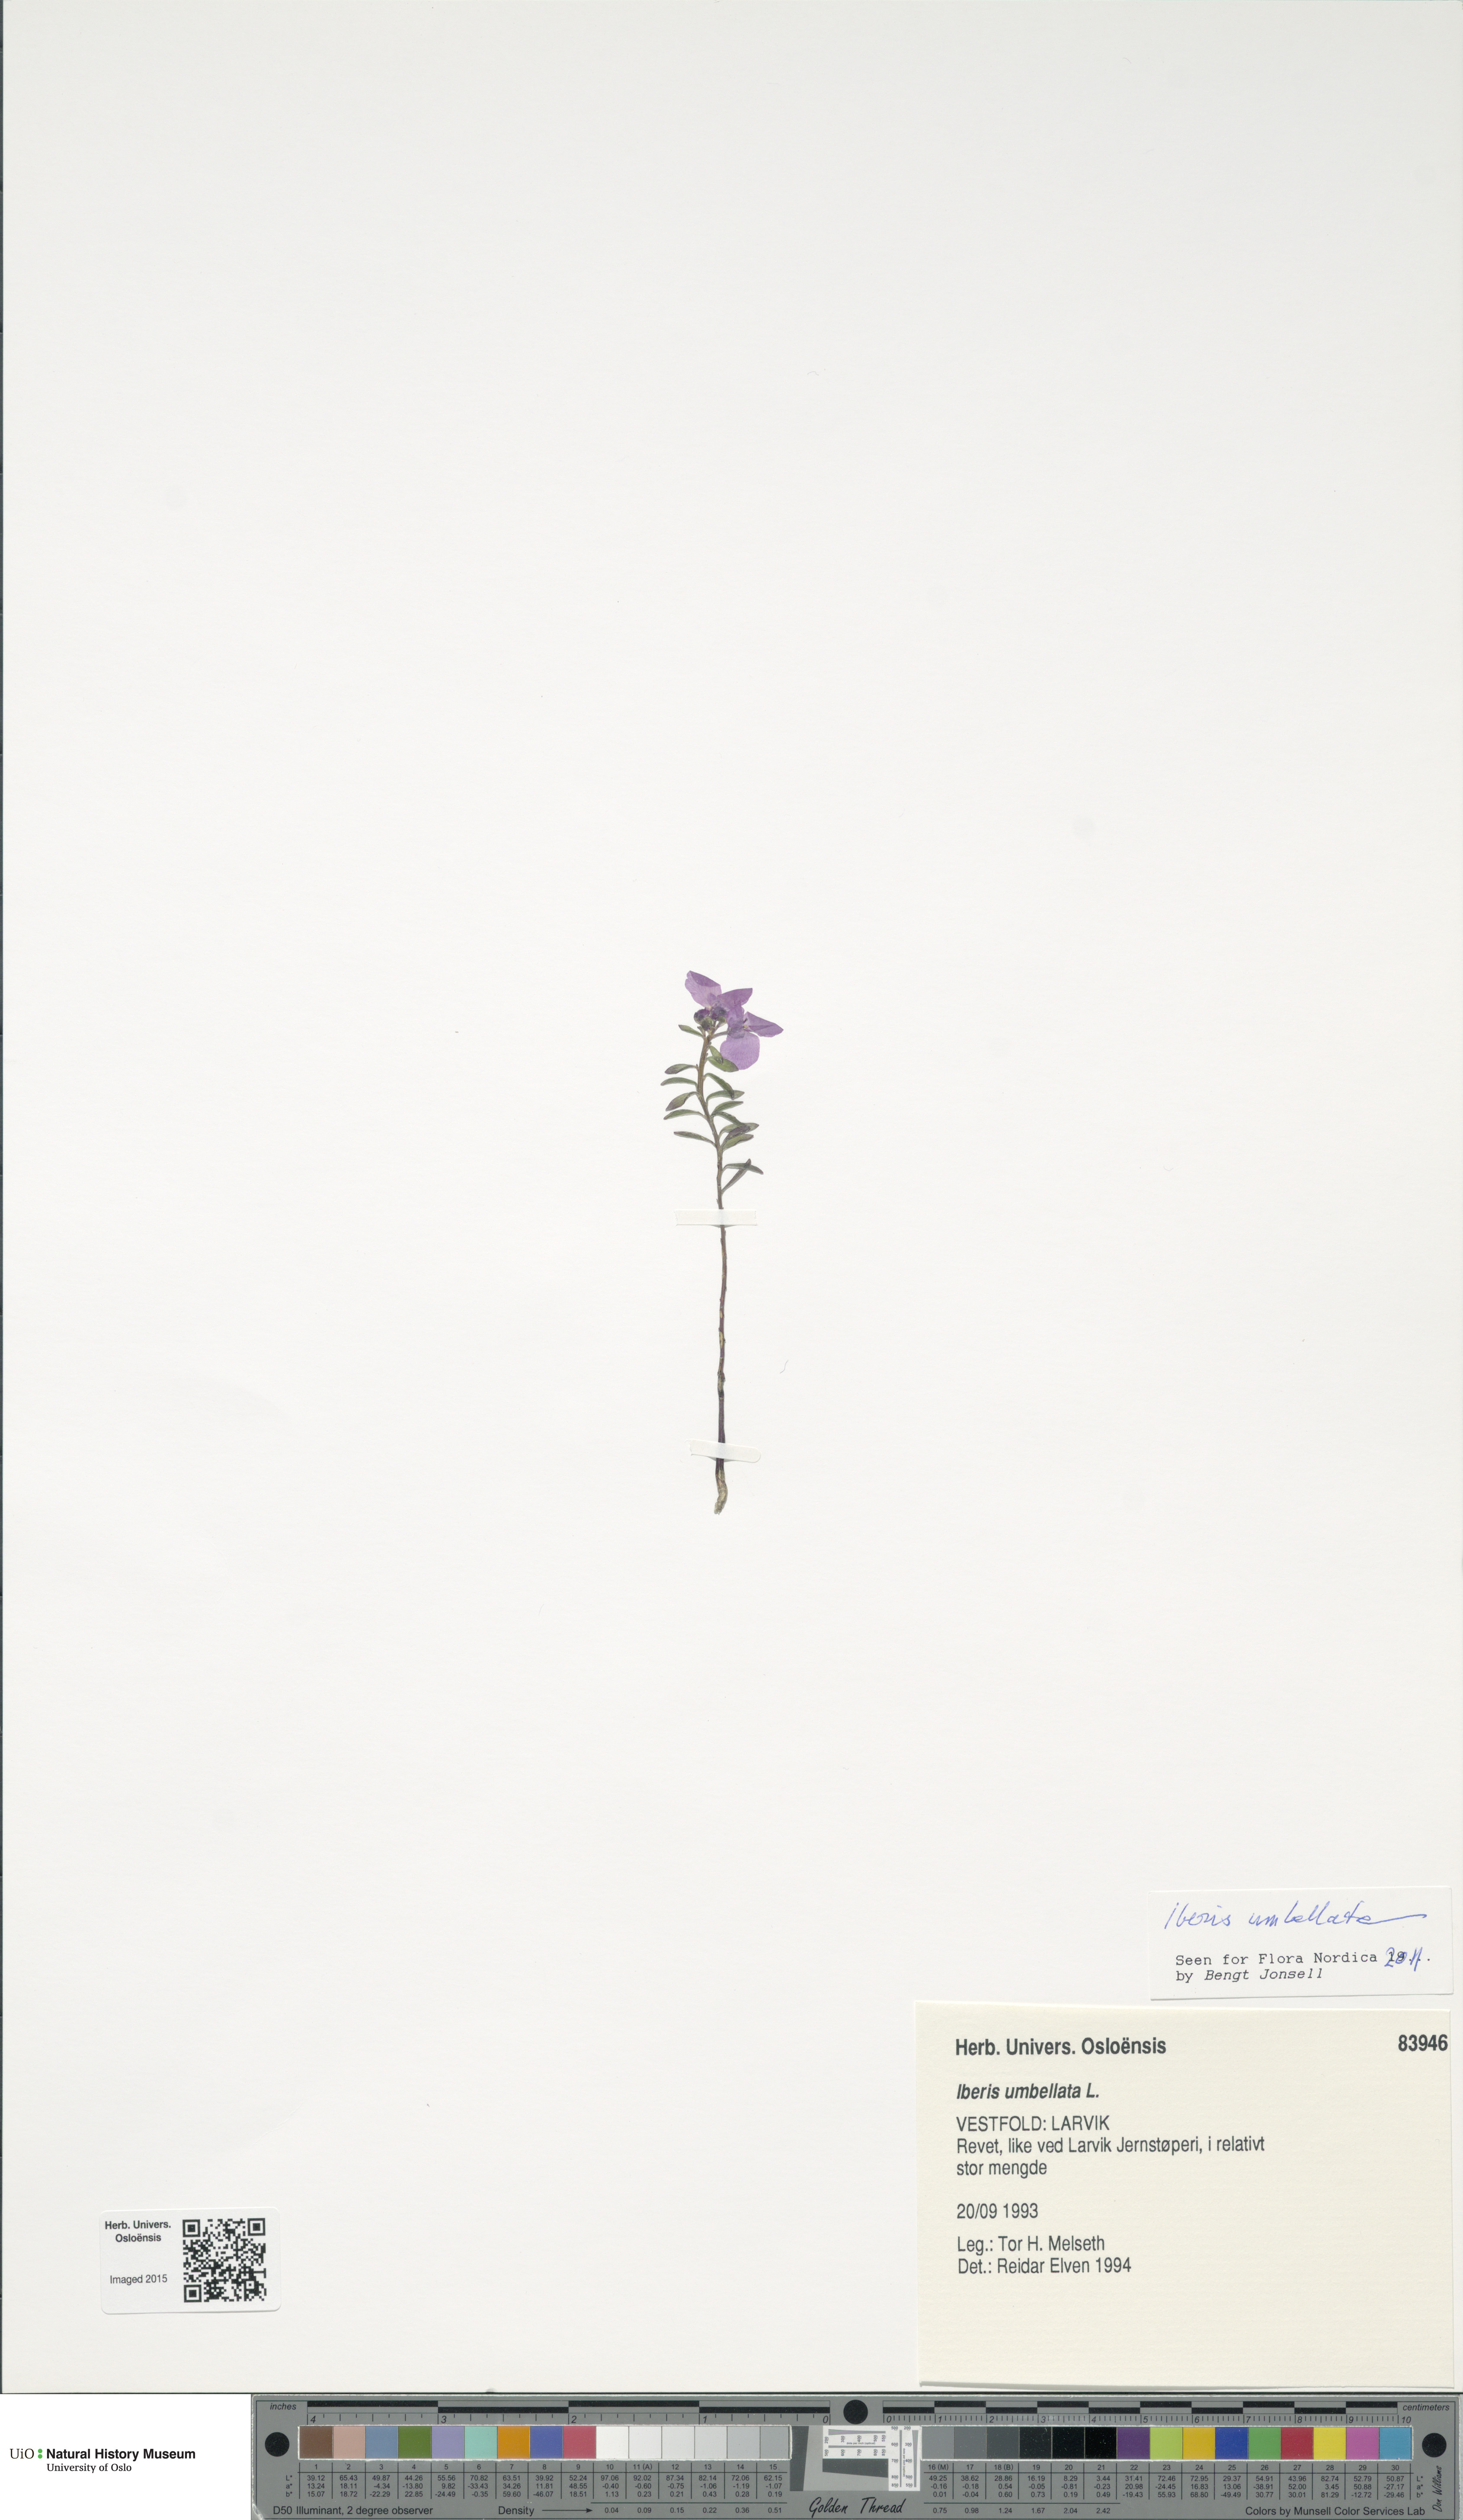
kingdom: Plantae
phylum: Tracheophyta
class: Magnoliopsida
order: Brassicales
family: Brassicaceae
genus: Iberis
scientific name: Iberis umbellata
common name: Globe candytuft
